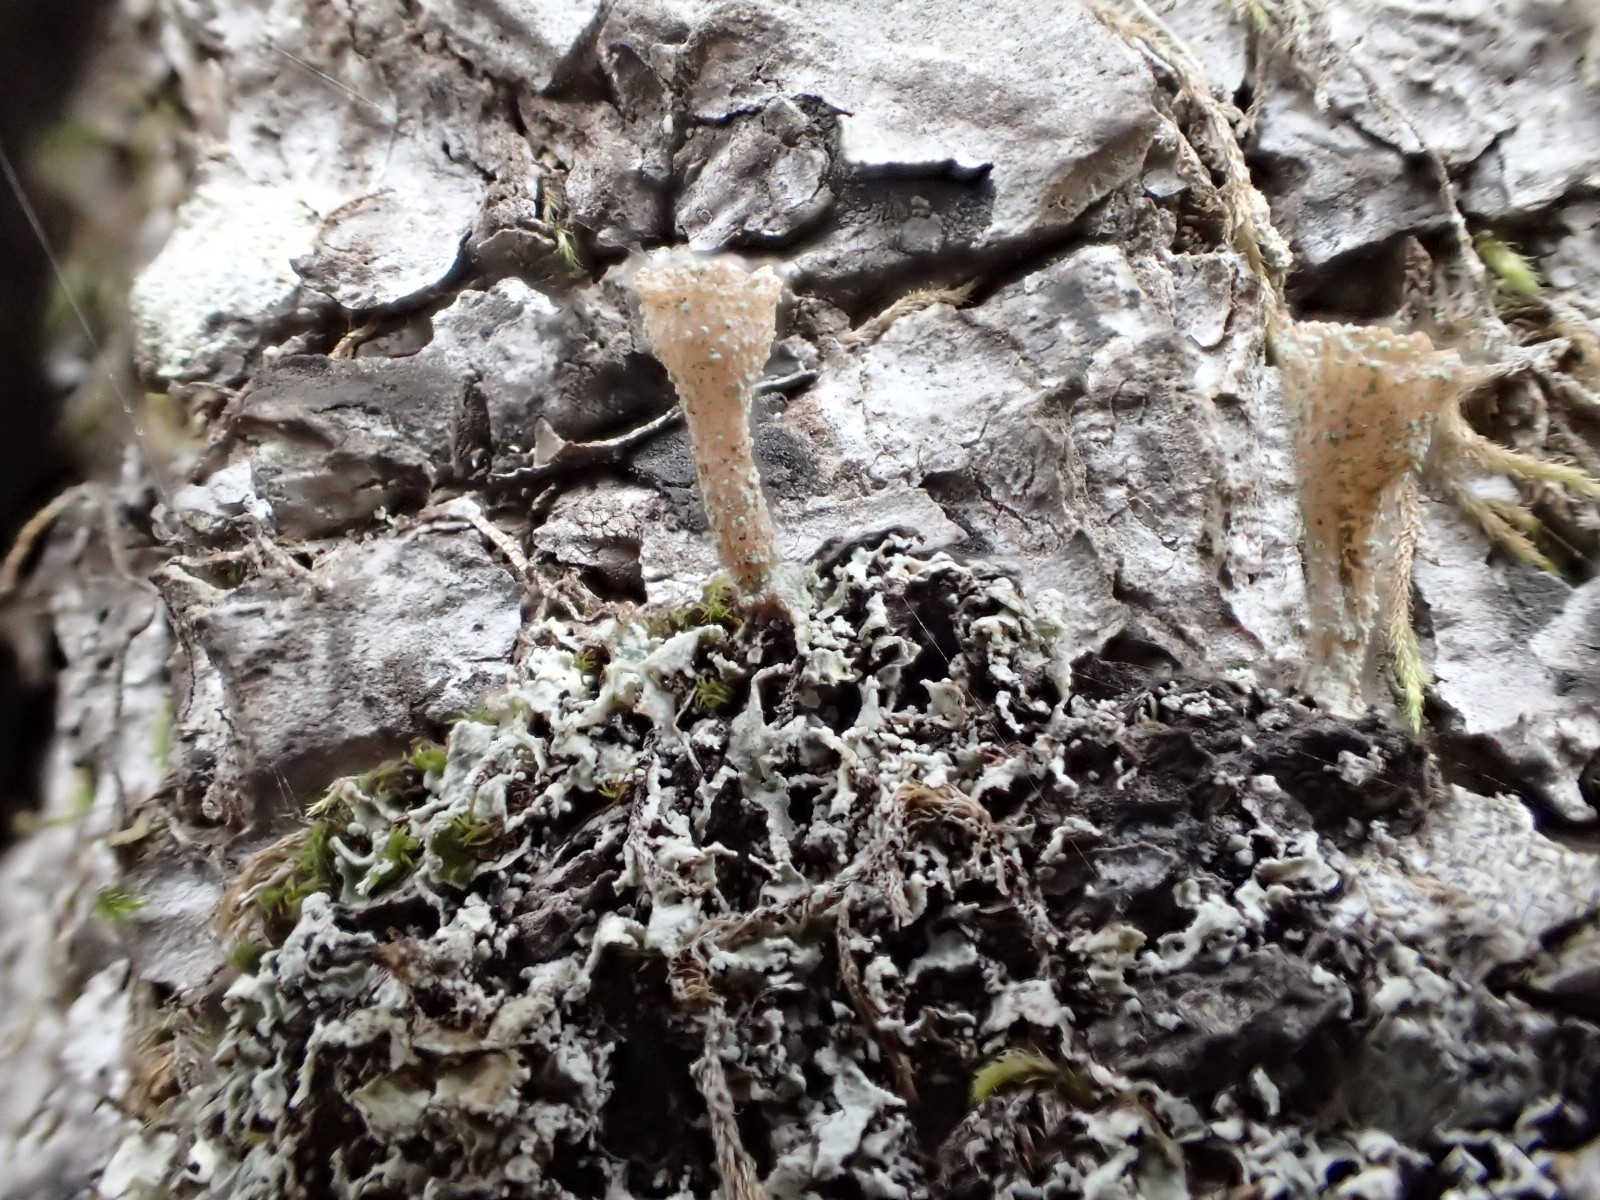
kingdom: Fungi
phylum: Ascomycota
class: Lecanoromycetes
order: Lecanorales
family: Cladoniaceae
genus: Cladonia
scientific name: Cladonia
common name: brungrøn bægerlav
